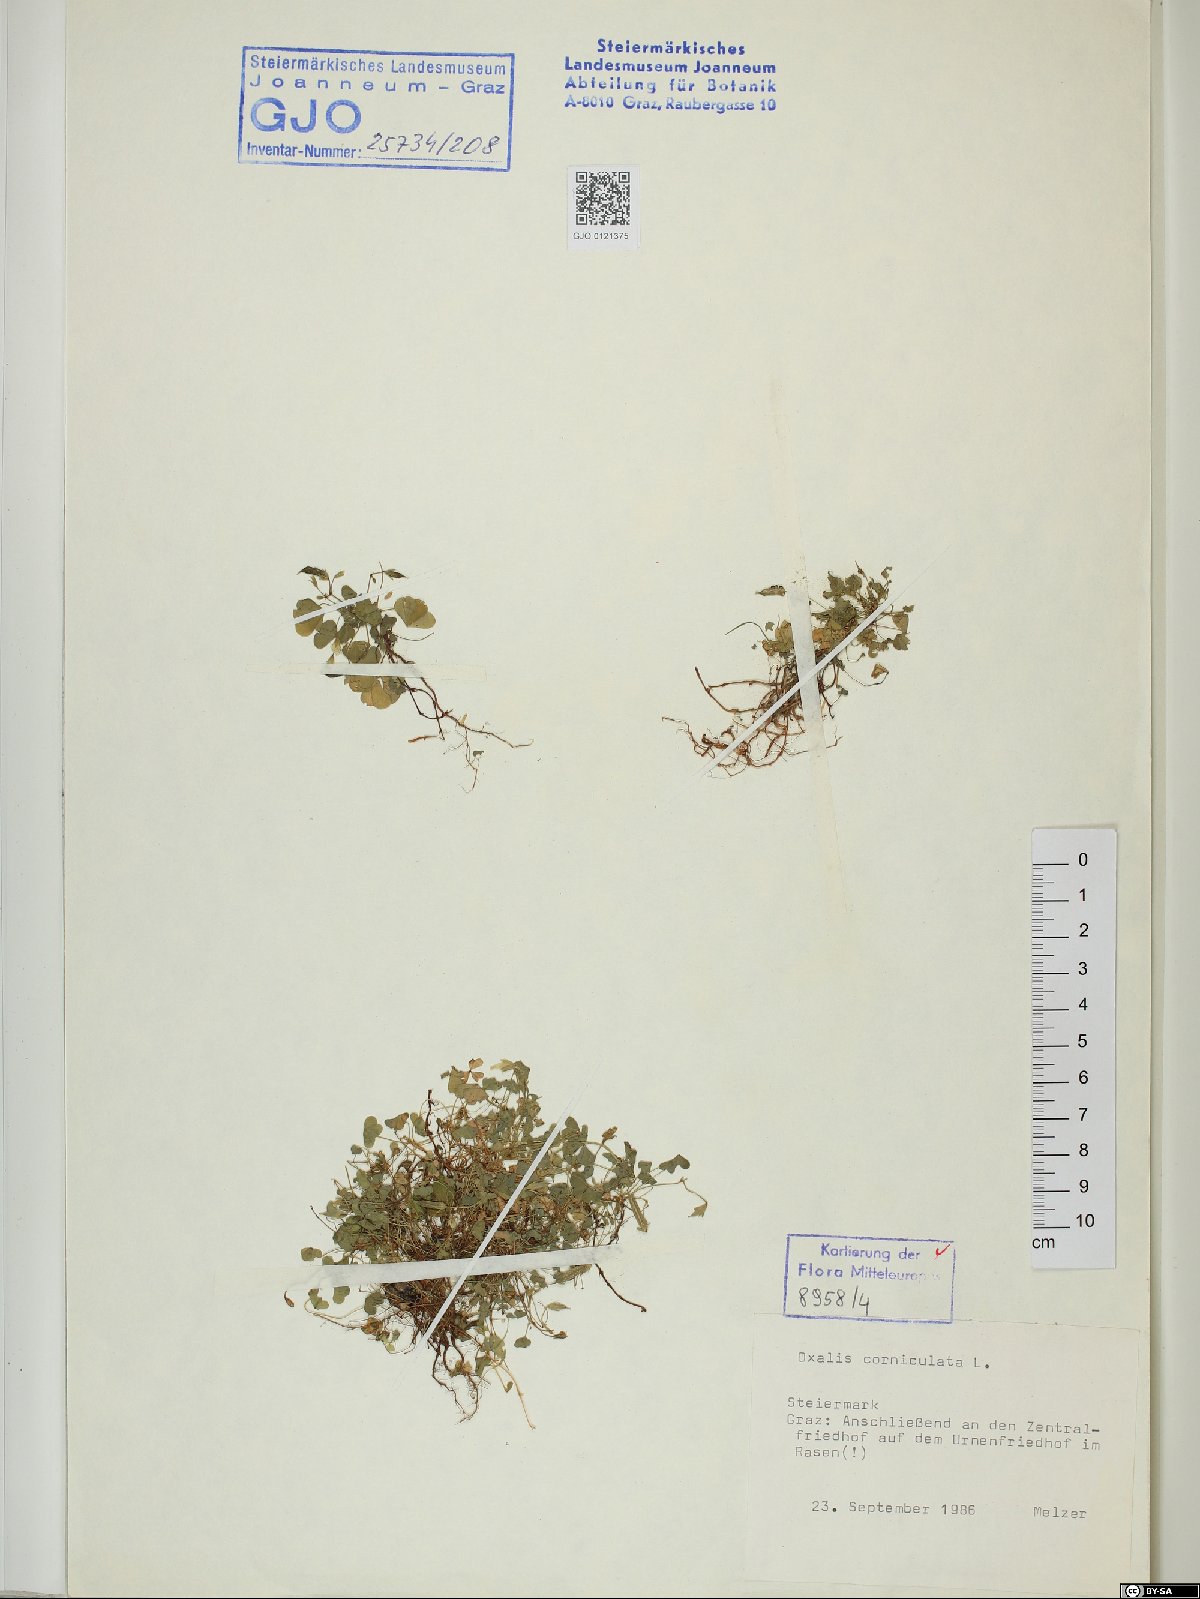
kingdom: Plantae
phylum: Tracheophyta
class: Magnoliopsida
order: Oxalidales
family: Oxalidaceae
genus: Oxalis
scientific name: Oxalis corniculata
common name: Procumbent yellow-sorrel
